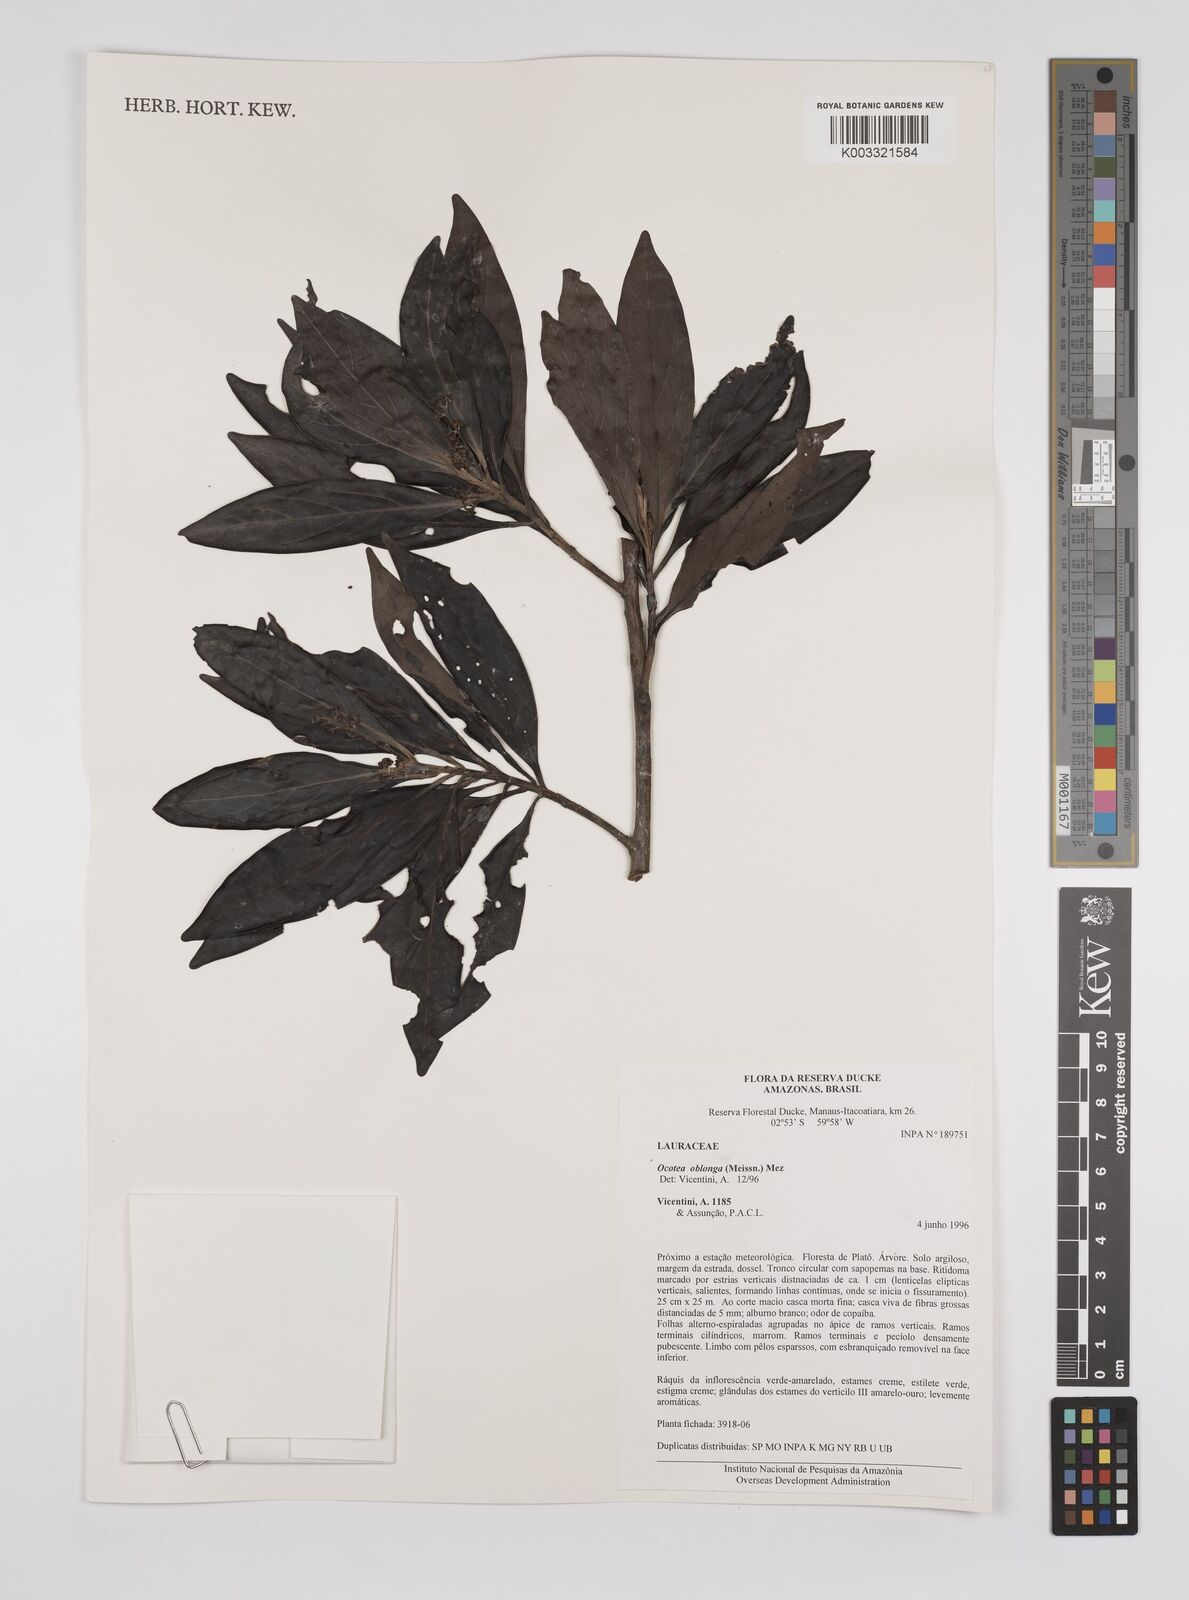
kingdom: Plantae
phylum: Tracheophyta
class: Magnoliopsida
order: Laurales
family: Lauraceae
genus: Ocotea
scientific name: Ocotea oblonga
